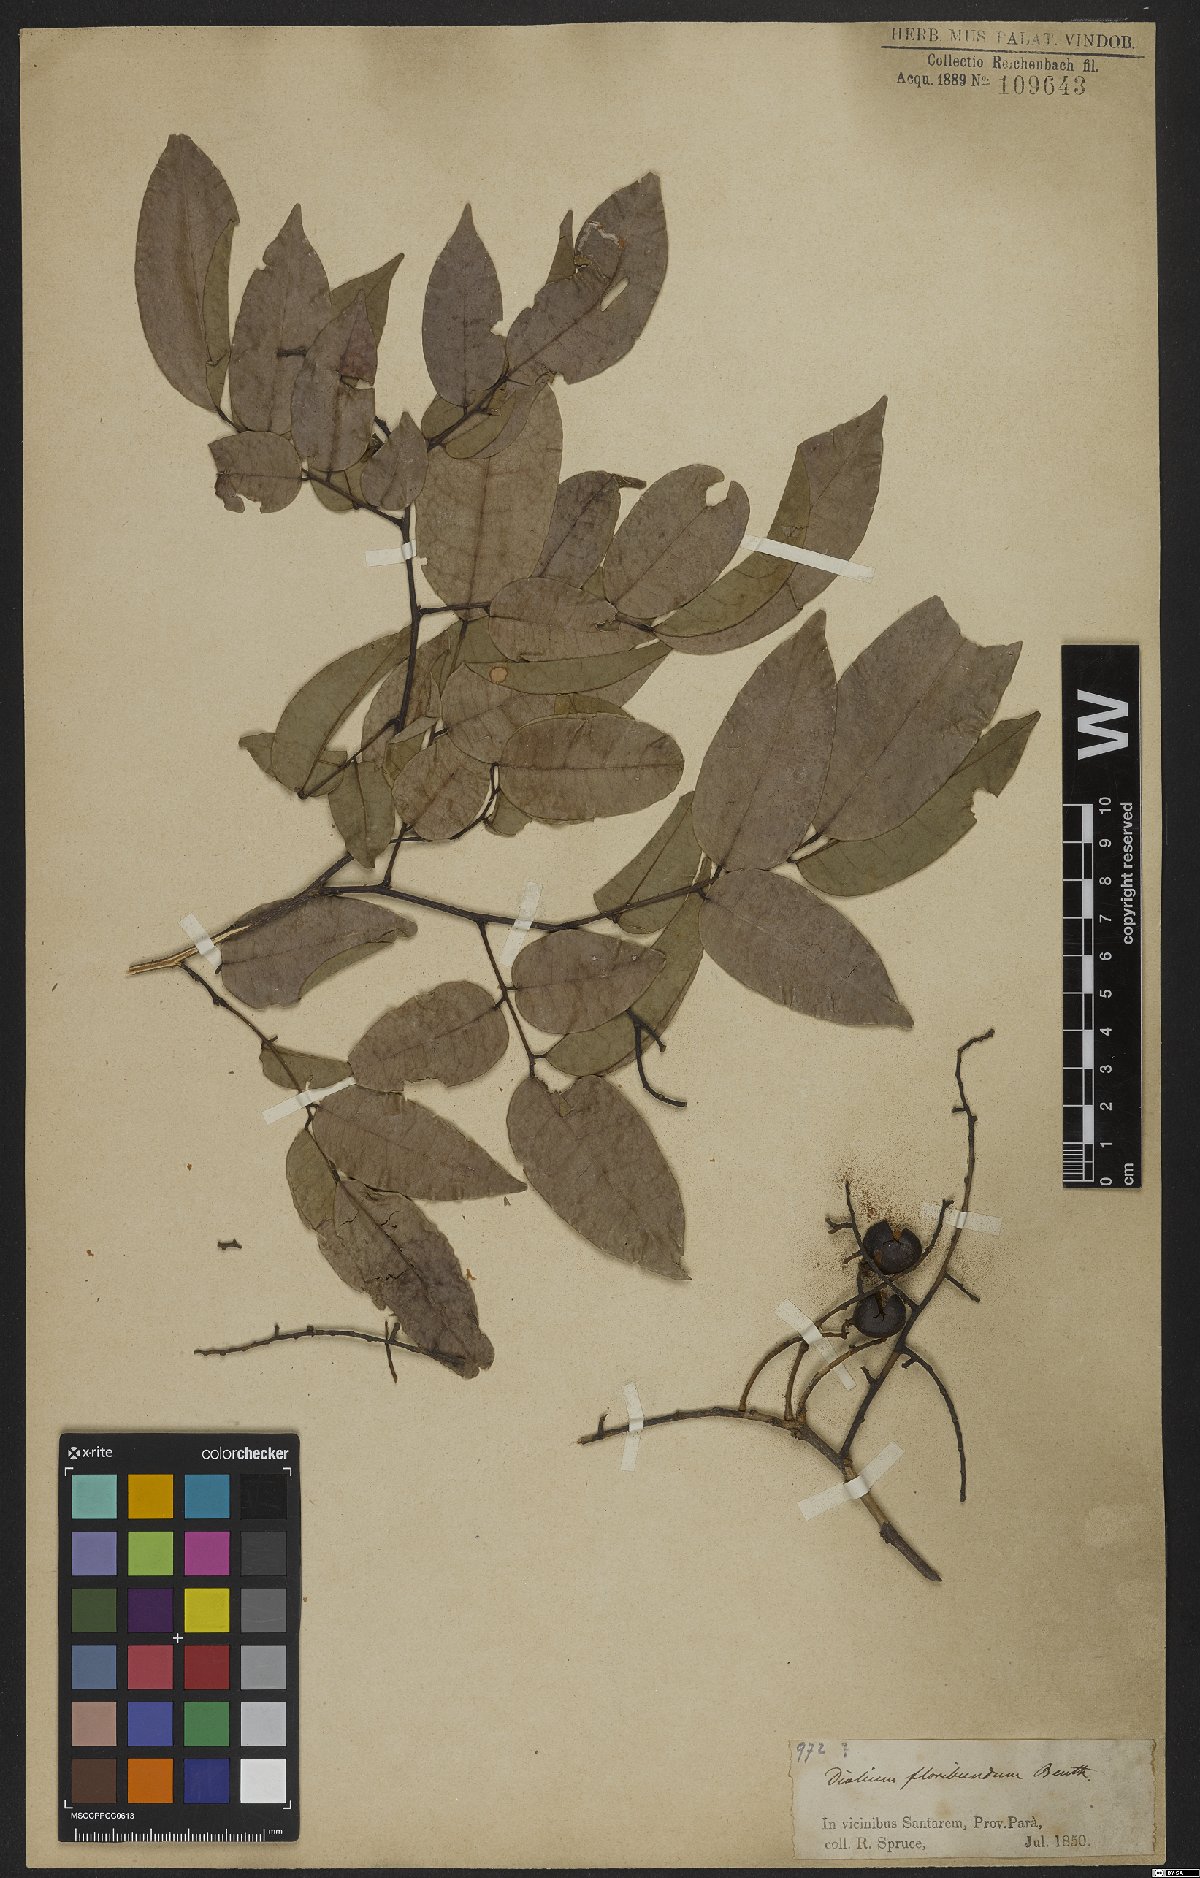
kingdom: Plantae
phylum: Tracheophyta
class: Magnoliopsida
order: Fabales
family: Fabaceae
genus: Dialium
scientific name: Dialium guianense
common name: Ironwood
